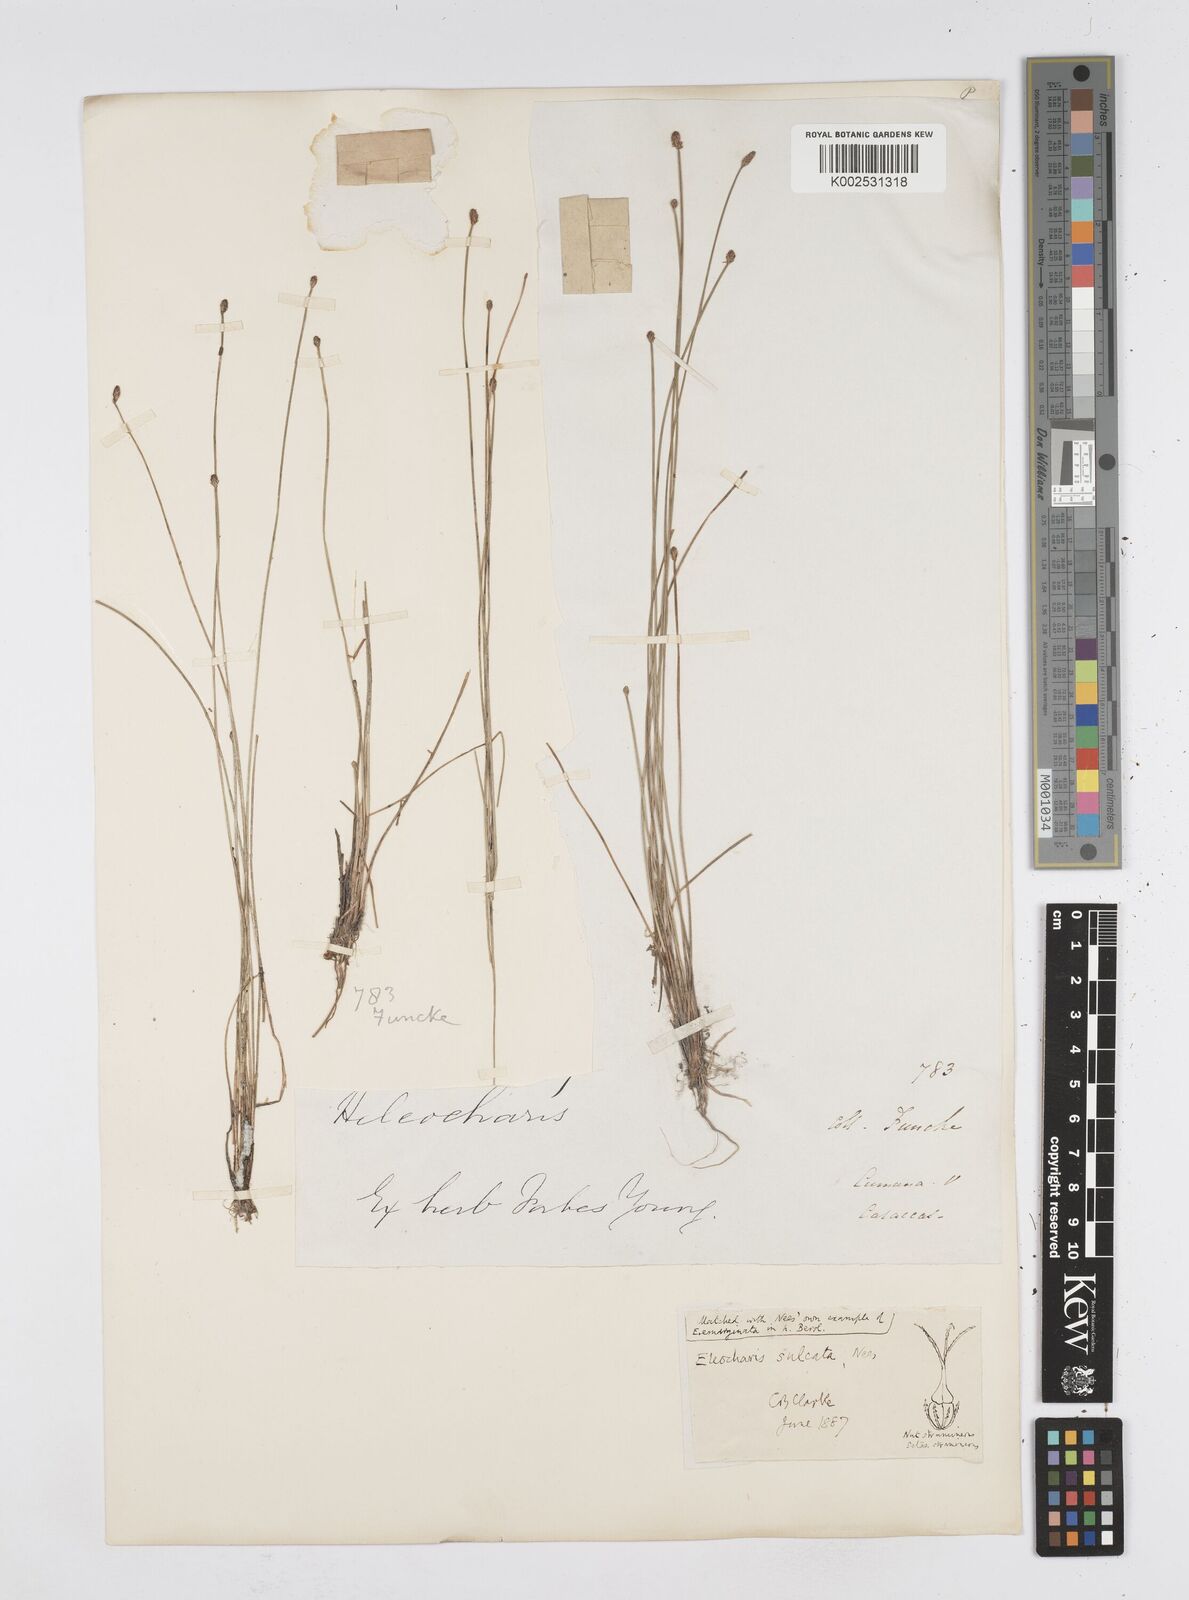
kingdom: Plantae
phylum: Tracheophyta
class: Liliopsida
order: Poales
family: Cyperaceae
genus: Eleocharis
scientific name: Eleocharis filiculmis
